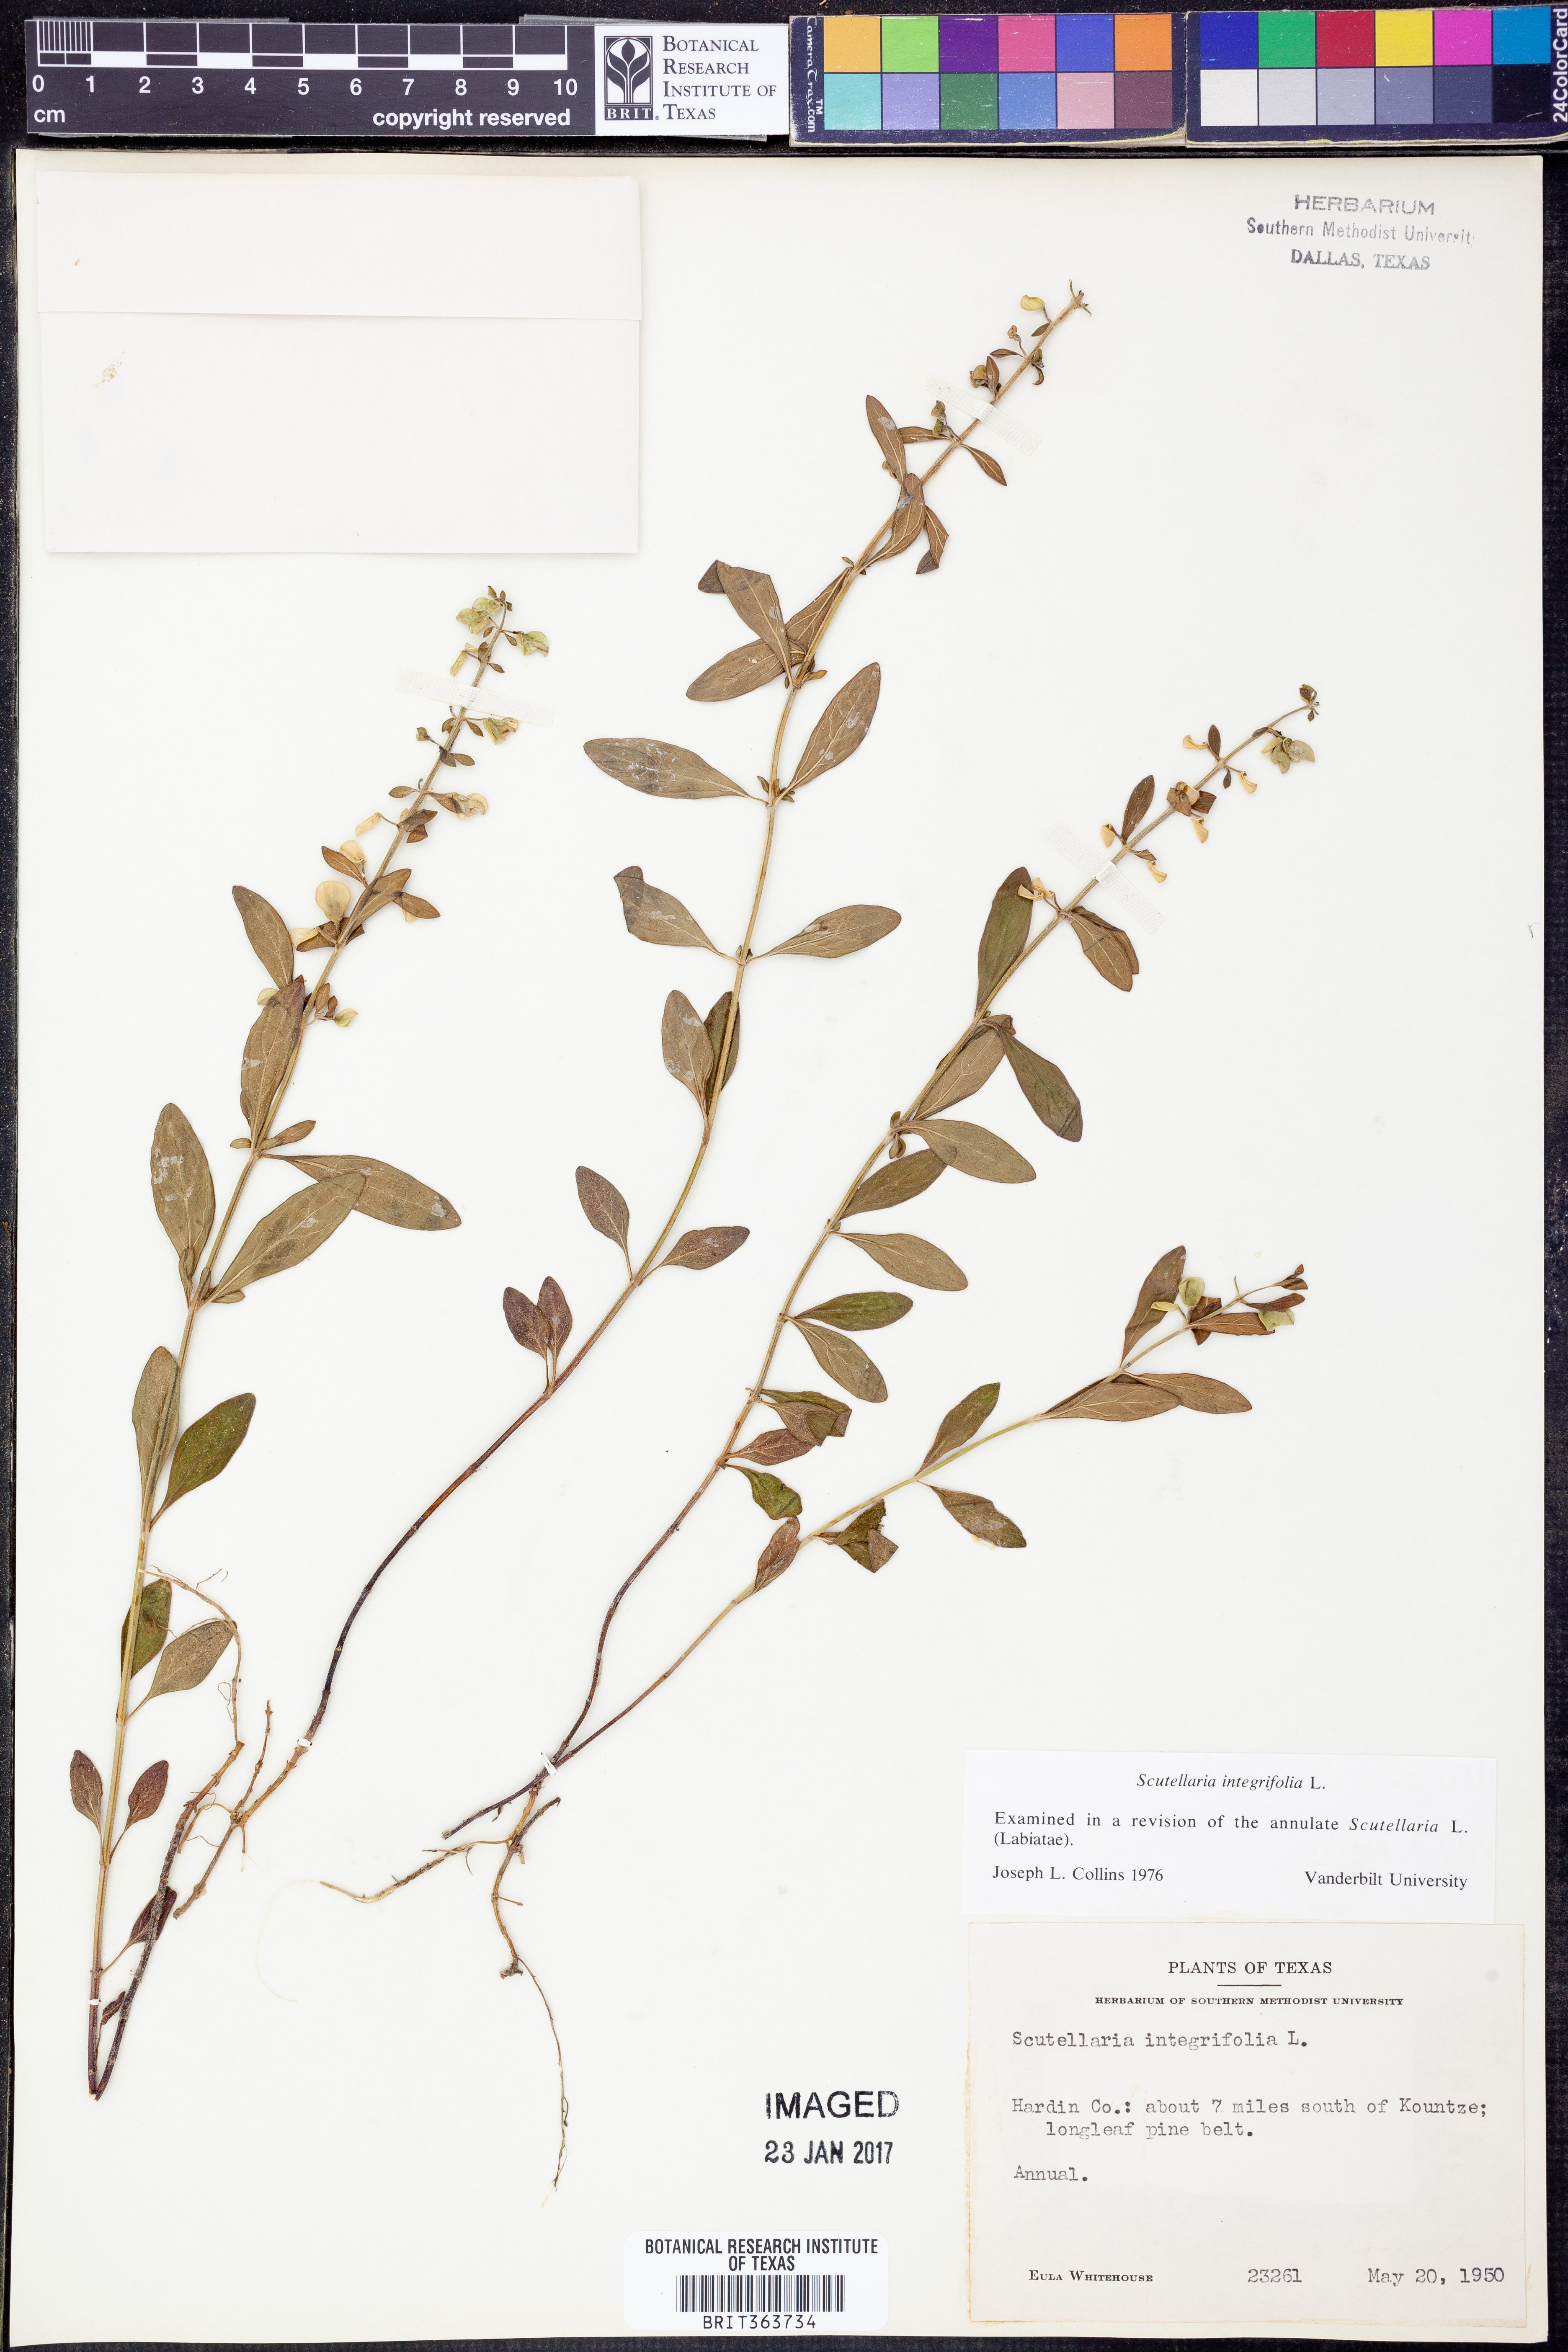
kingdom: Plantae
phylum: Tracheophyta
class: Magnoliopsida
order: Lamiales
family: Lamiaceae
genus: Scutellaria
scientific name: Scutellaria integrifolia
